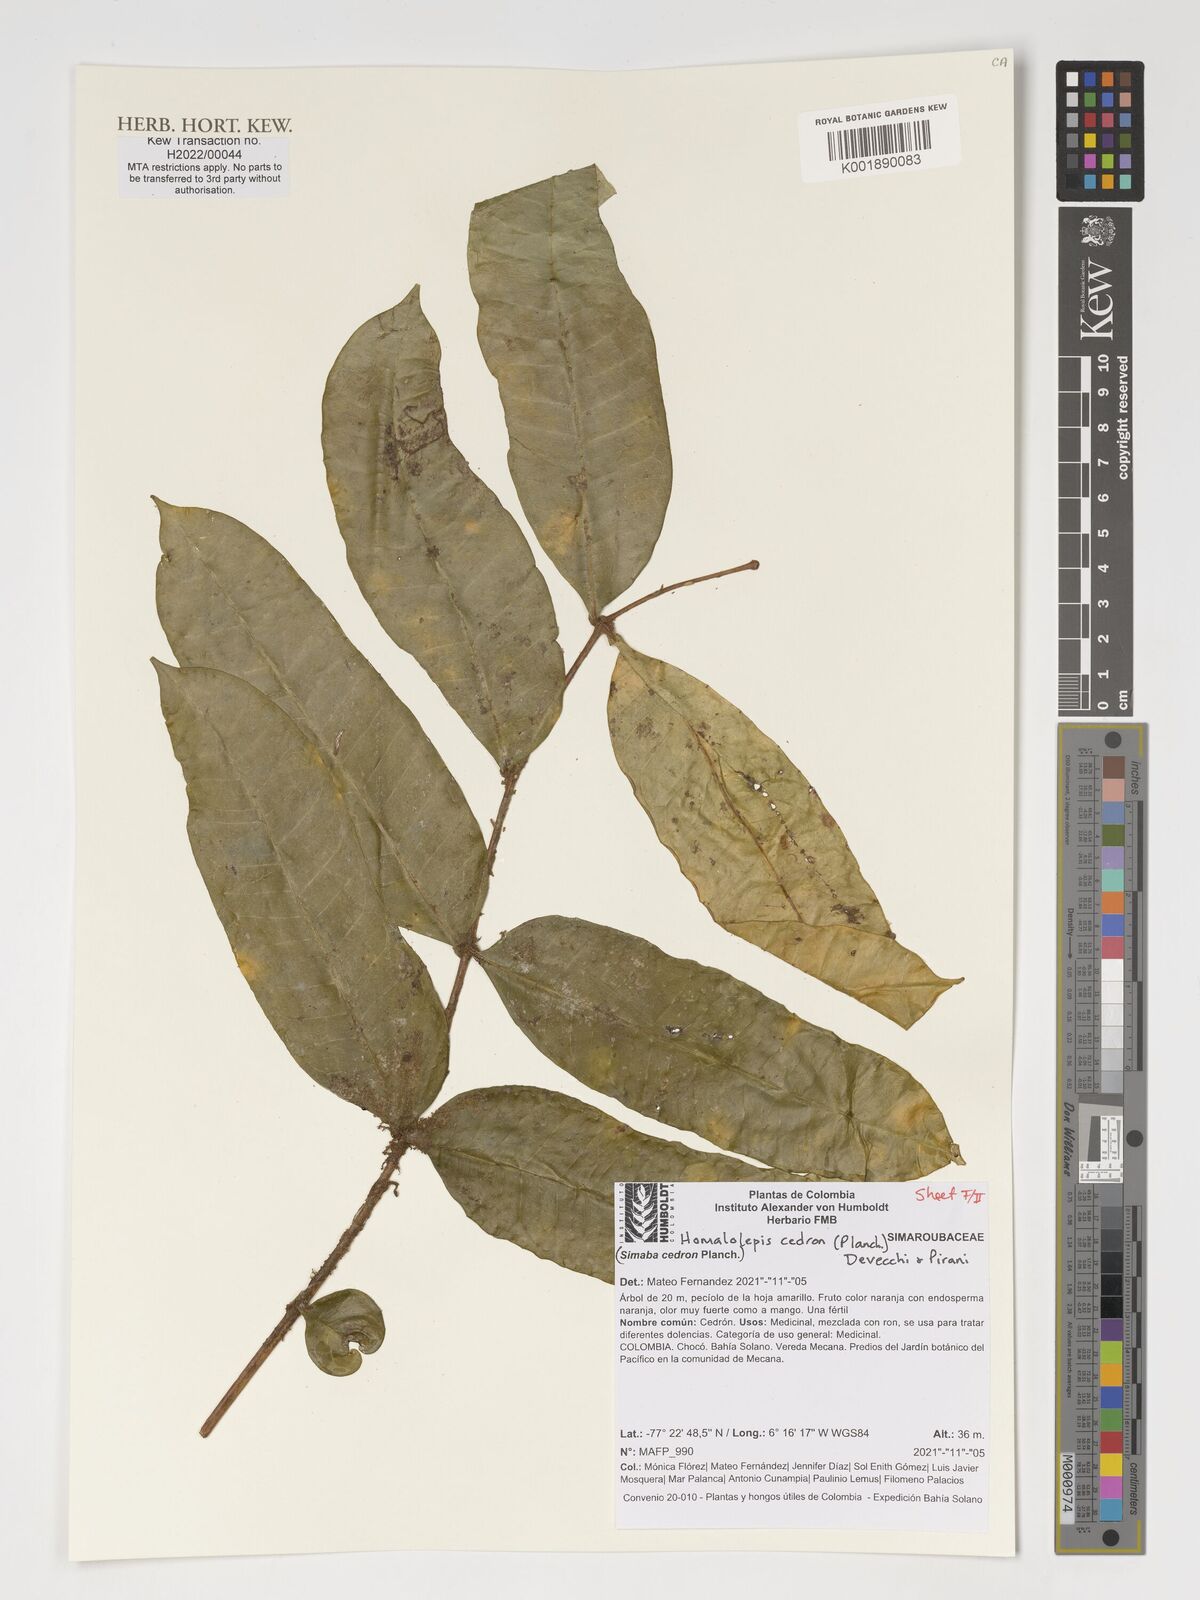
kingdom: Plantae
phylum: Tracheophyta
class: Magnoliopsida
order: Sapindales
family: Simaroubaceae
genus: Homalolepis
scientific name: Homalolepis cedron
